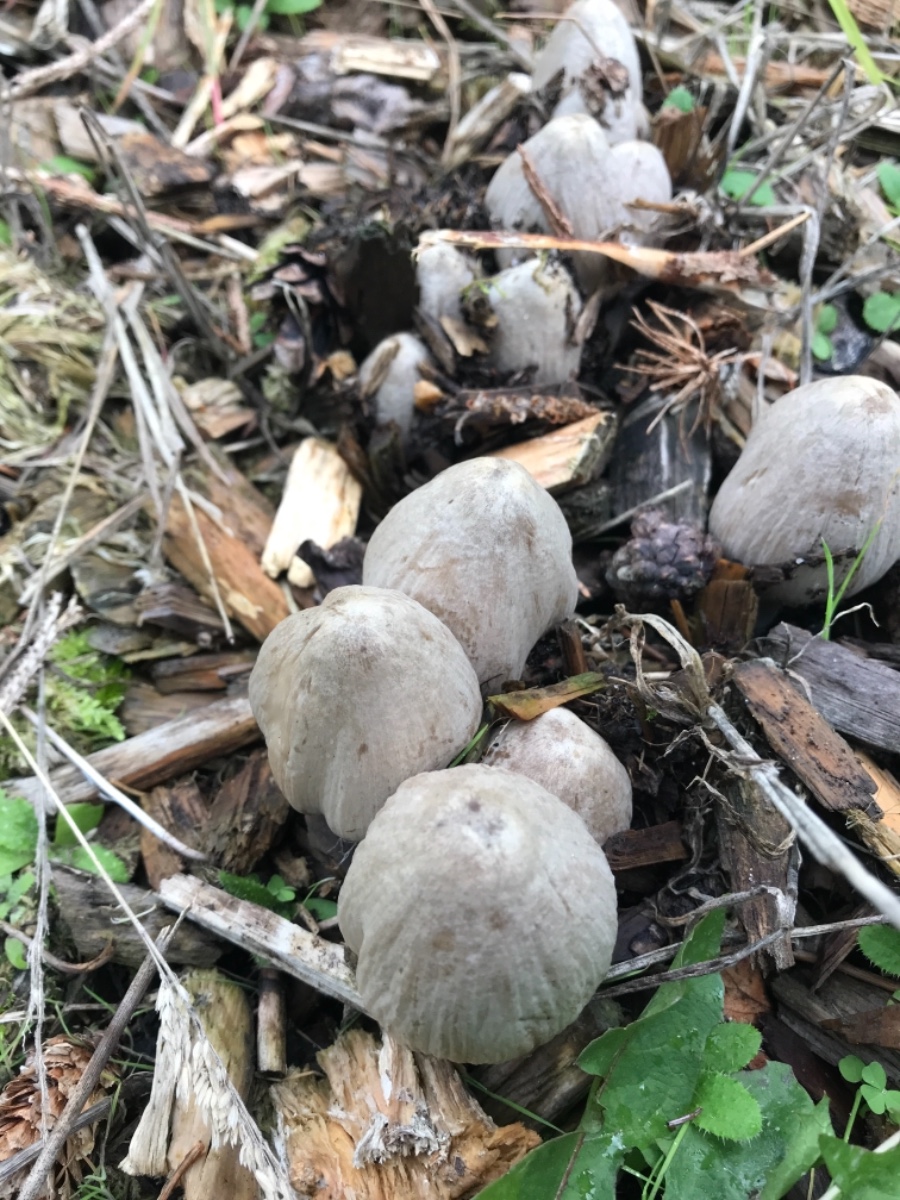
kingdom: Fungi
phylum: Basidiomycota
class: Agaricomycetes
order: Agaricales
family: Psathyrellaceae
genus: Coprinopsis
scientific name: Coprinopsis atramentaria
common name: almindelig blækhat
